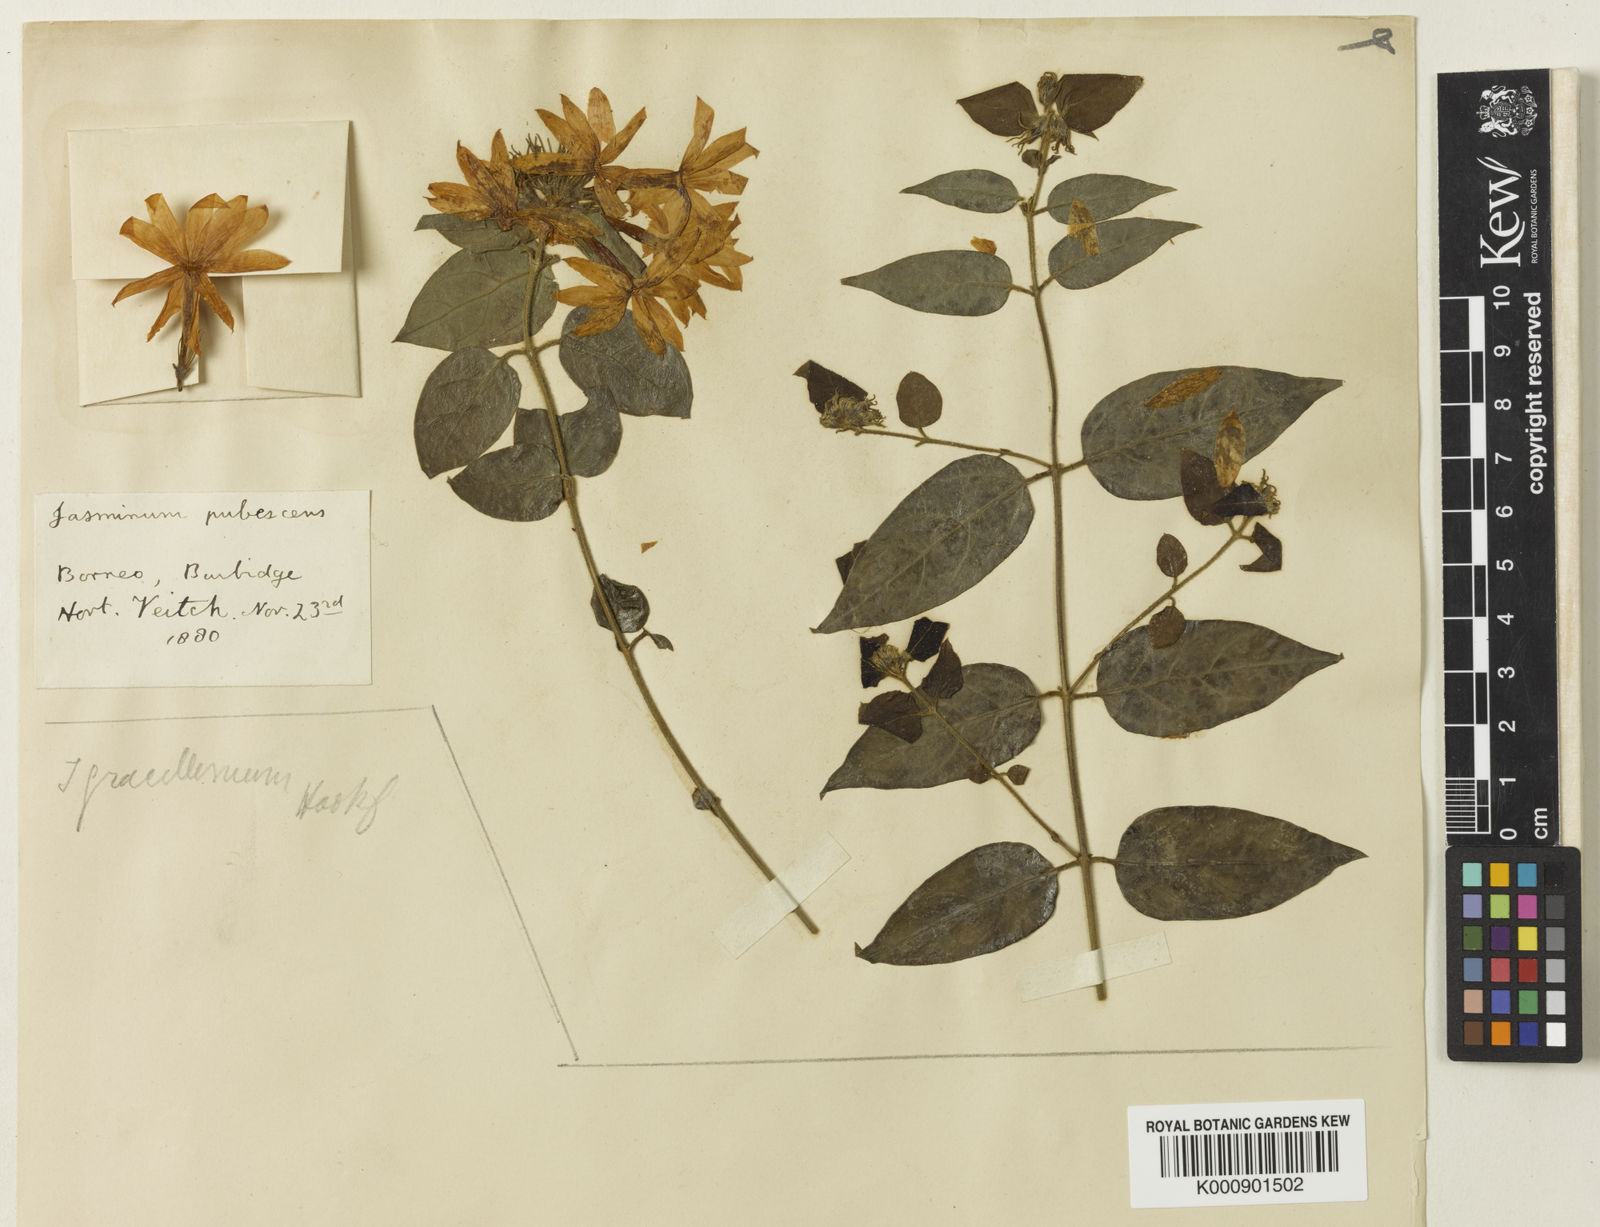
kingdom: Plantae
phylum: Tracheophyta
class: Magnoliopsida
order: Lamiales
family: Oleaceae
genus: Jasminum
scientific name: Jasminum multiflorum
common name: Star jasmine
